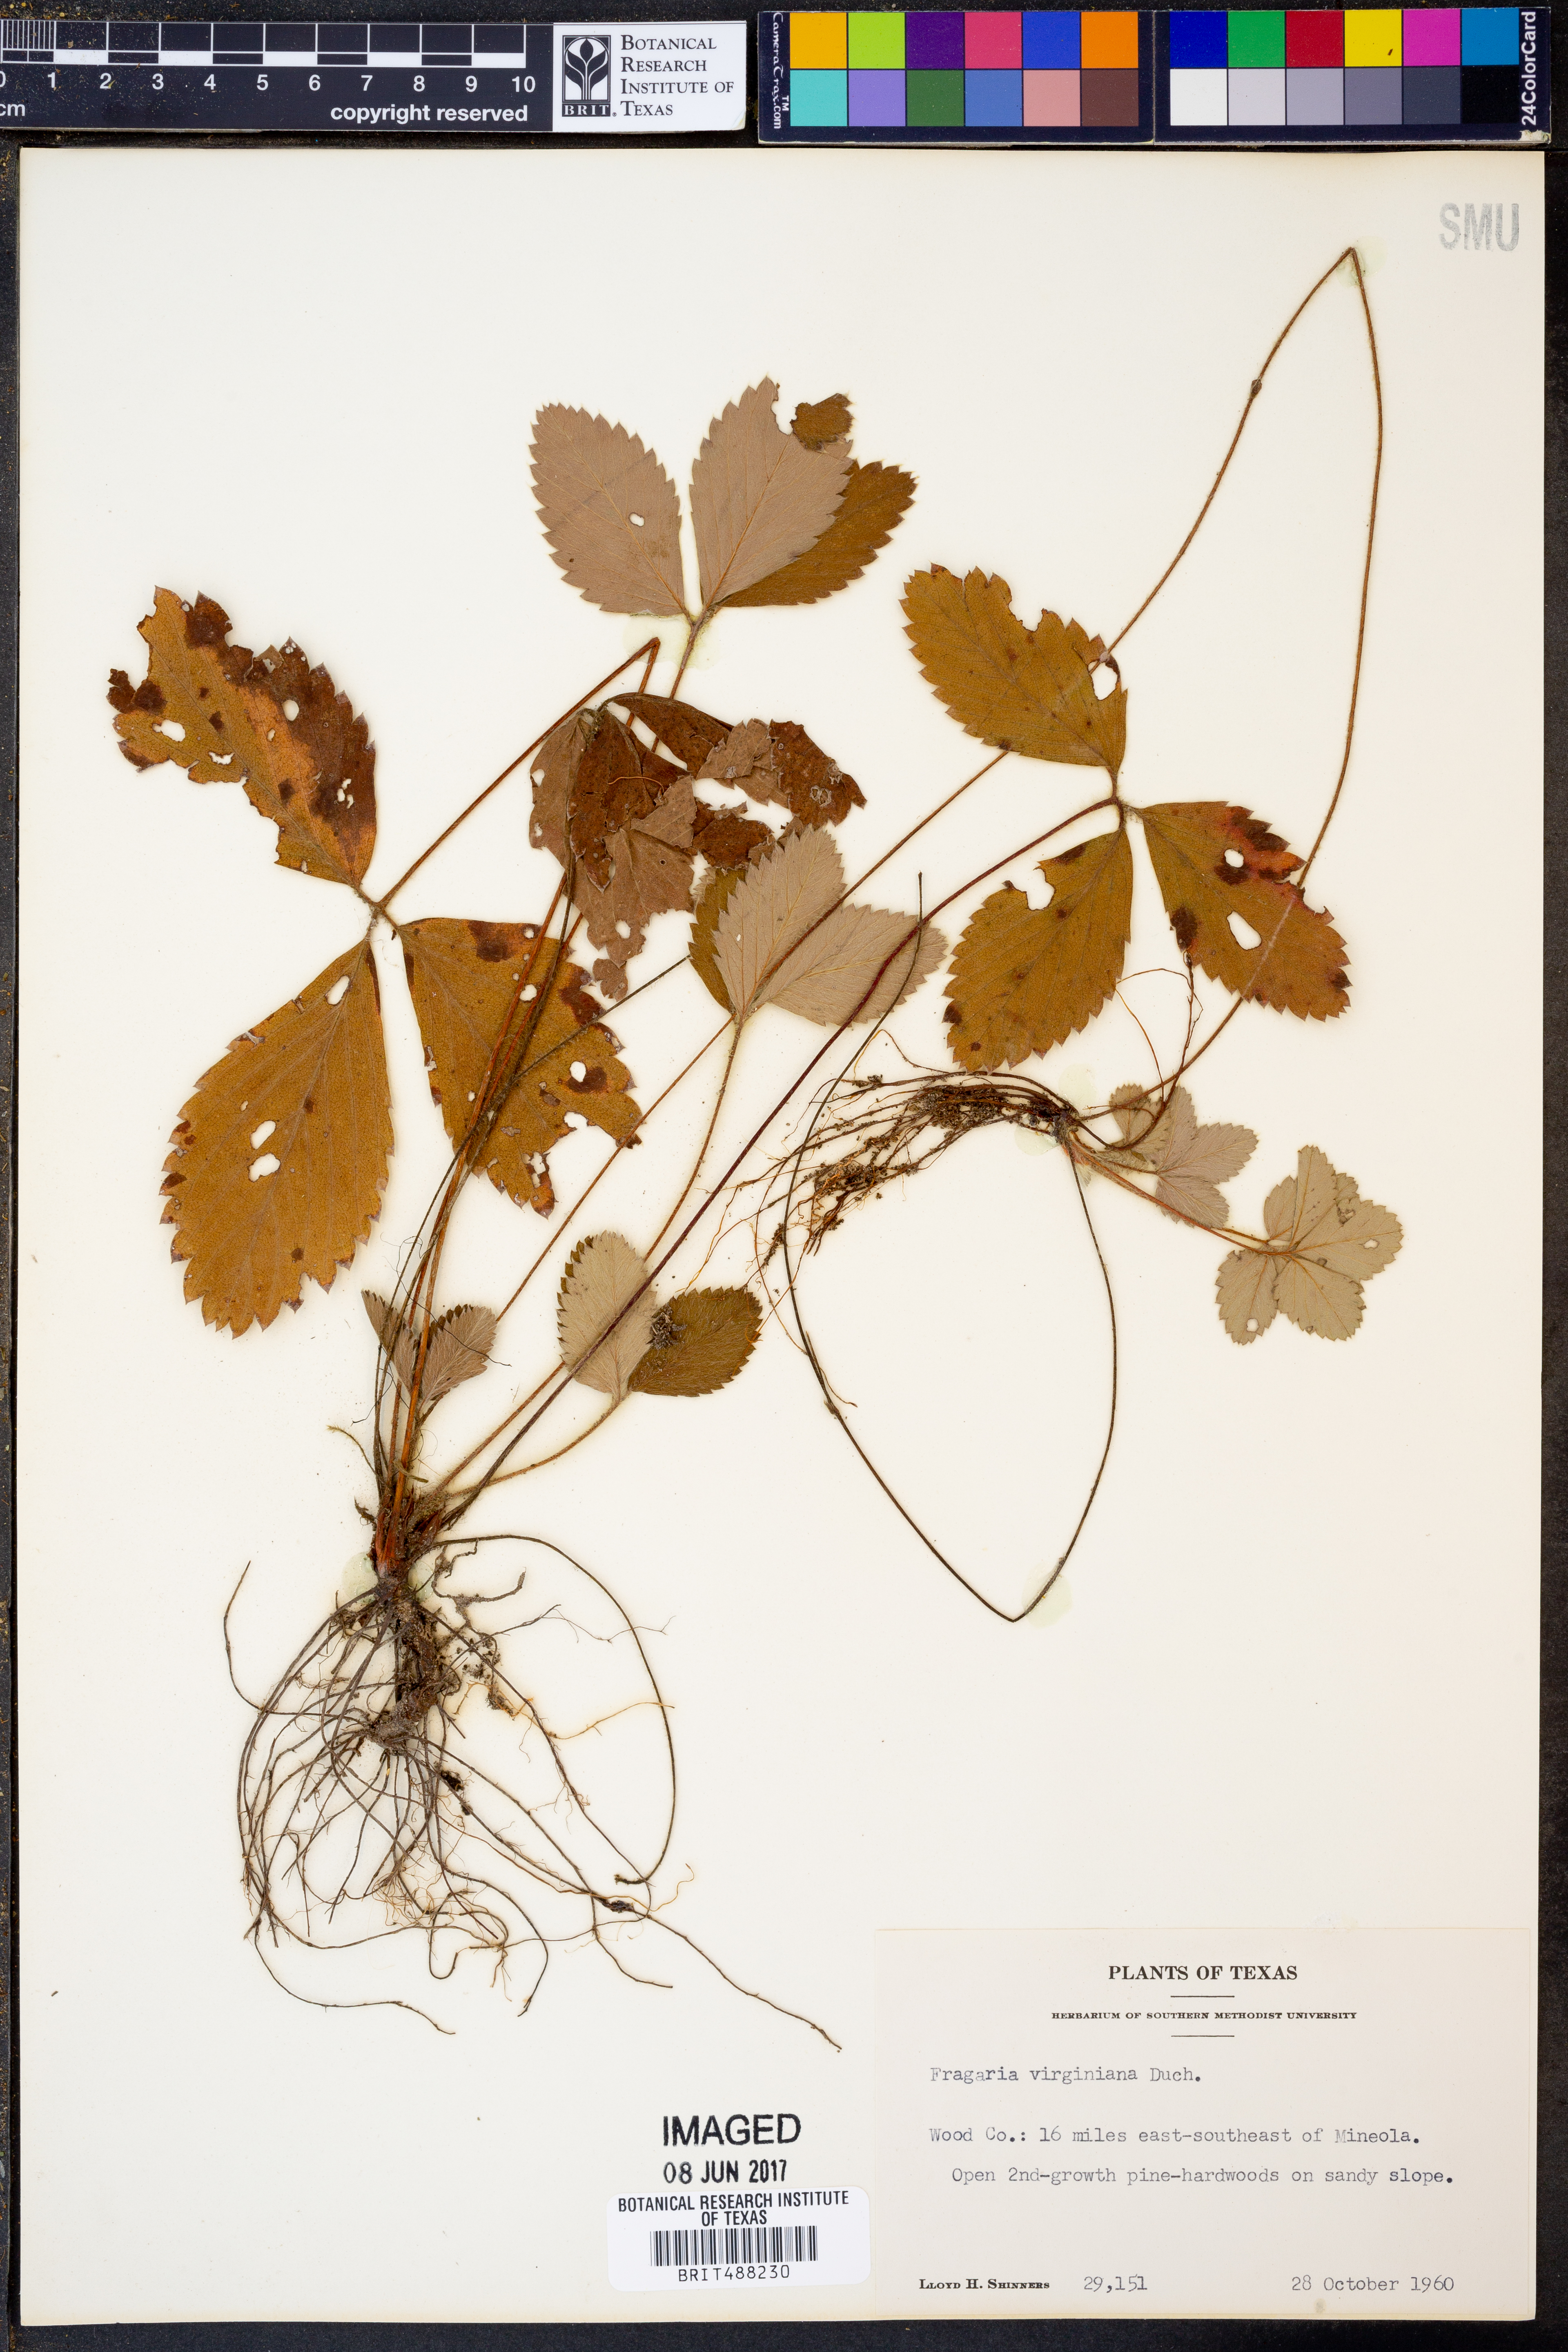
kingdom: Plantae
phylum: Tracheophyta
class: Magnoliopsida
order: Rosales
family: Rosaceae
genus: Fragaria
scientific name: Fragaria virginiana
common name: Thickleaved wild strawberry
